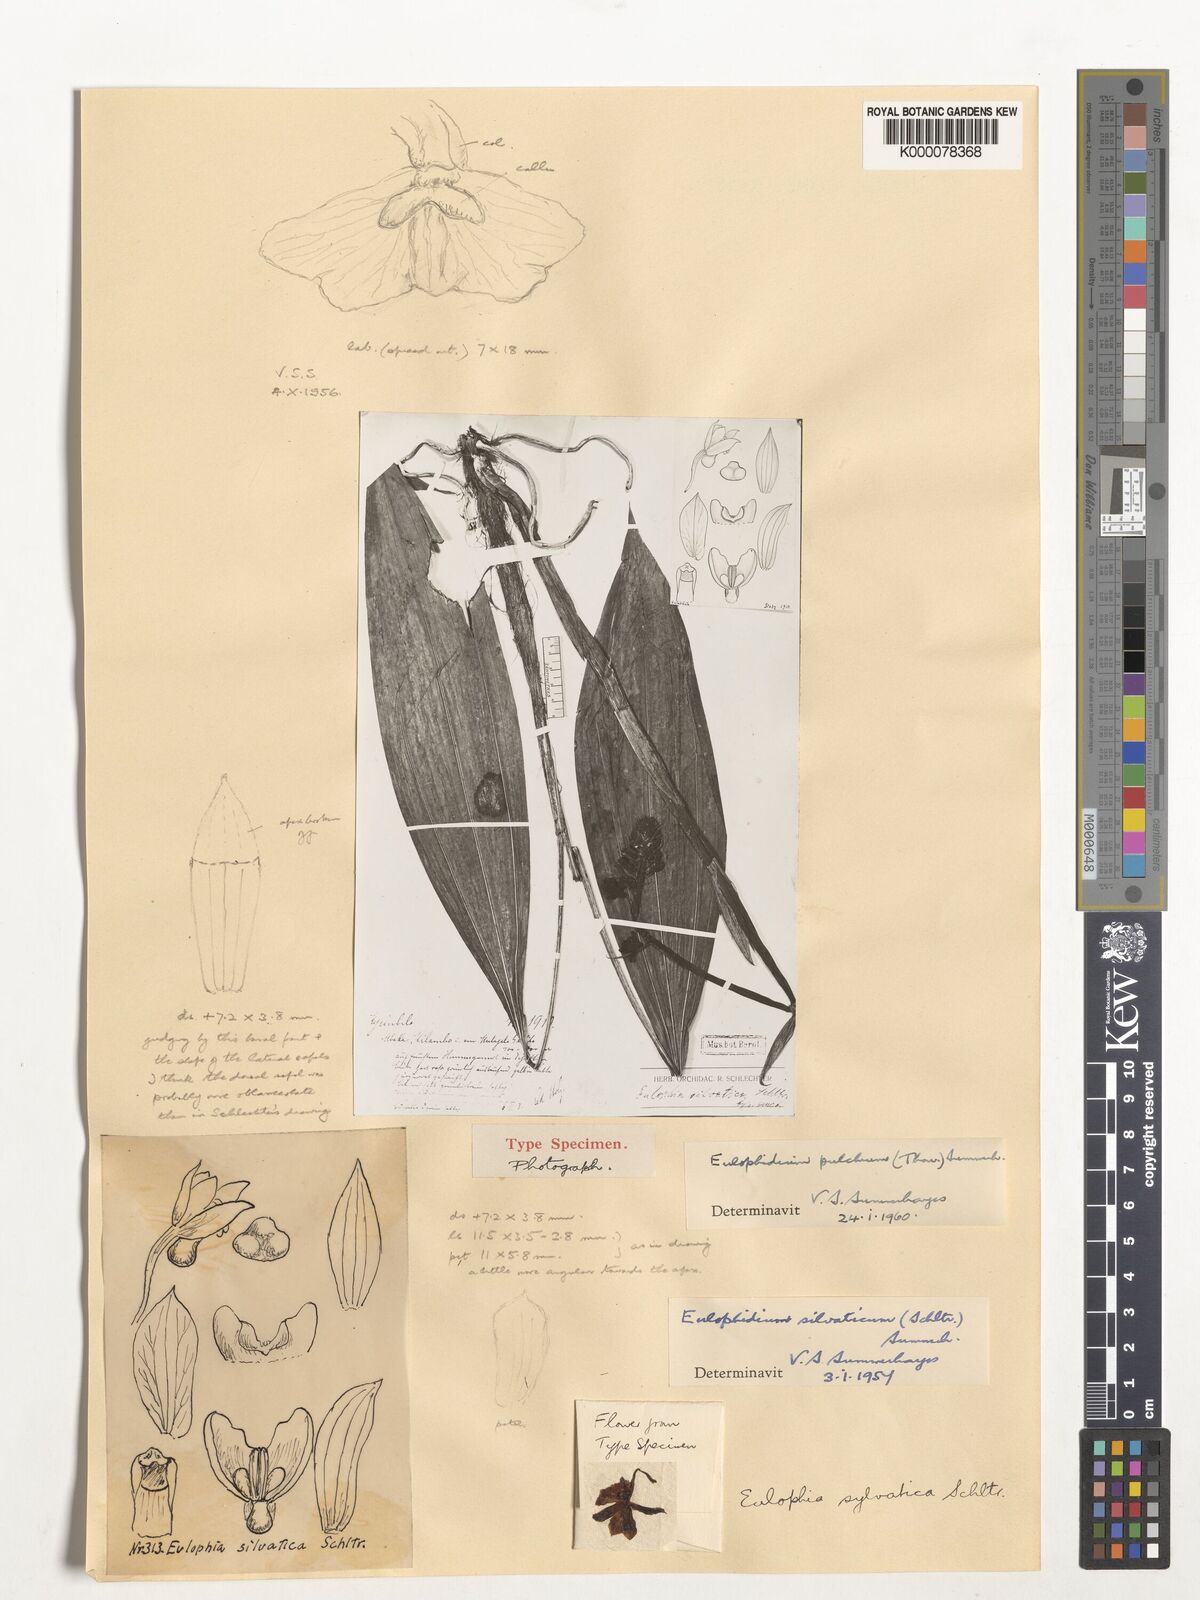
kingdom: Plantae
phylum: Tracheophyta
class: Liliopsida
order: Asparagales
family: Orchidaceae
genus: Eulophia
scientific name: Eulophia pulchra
